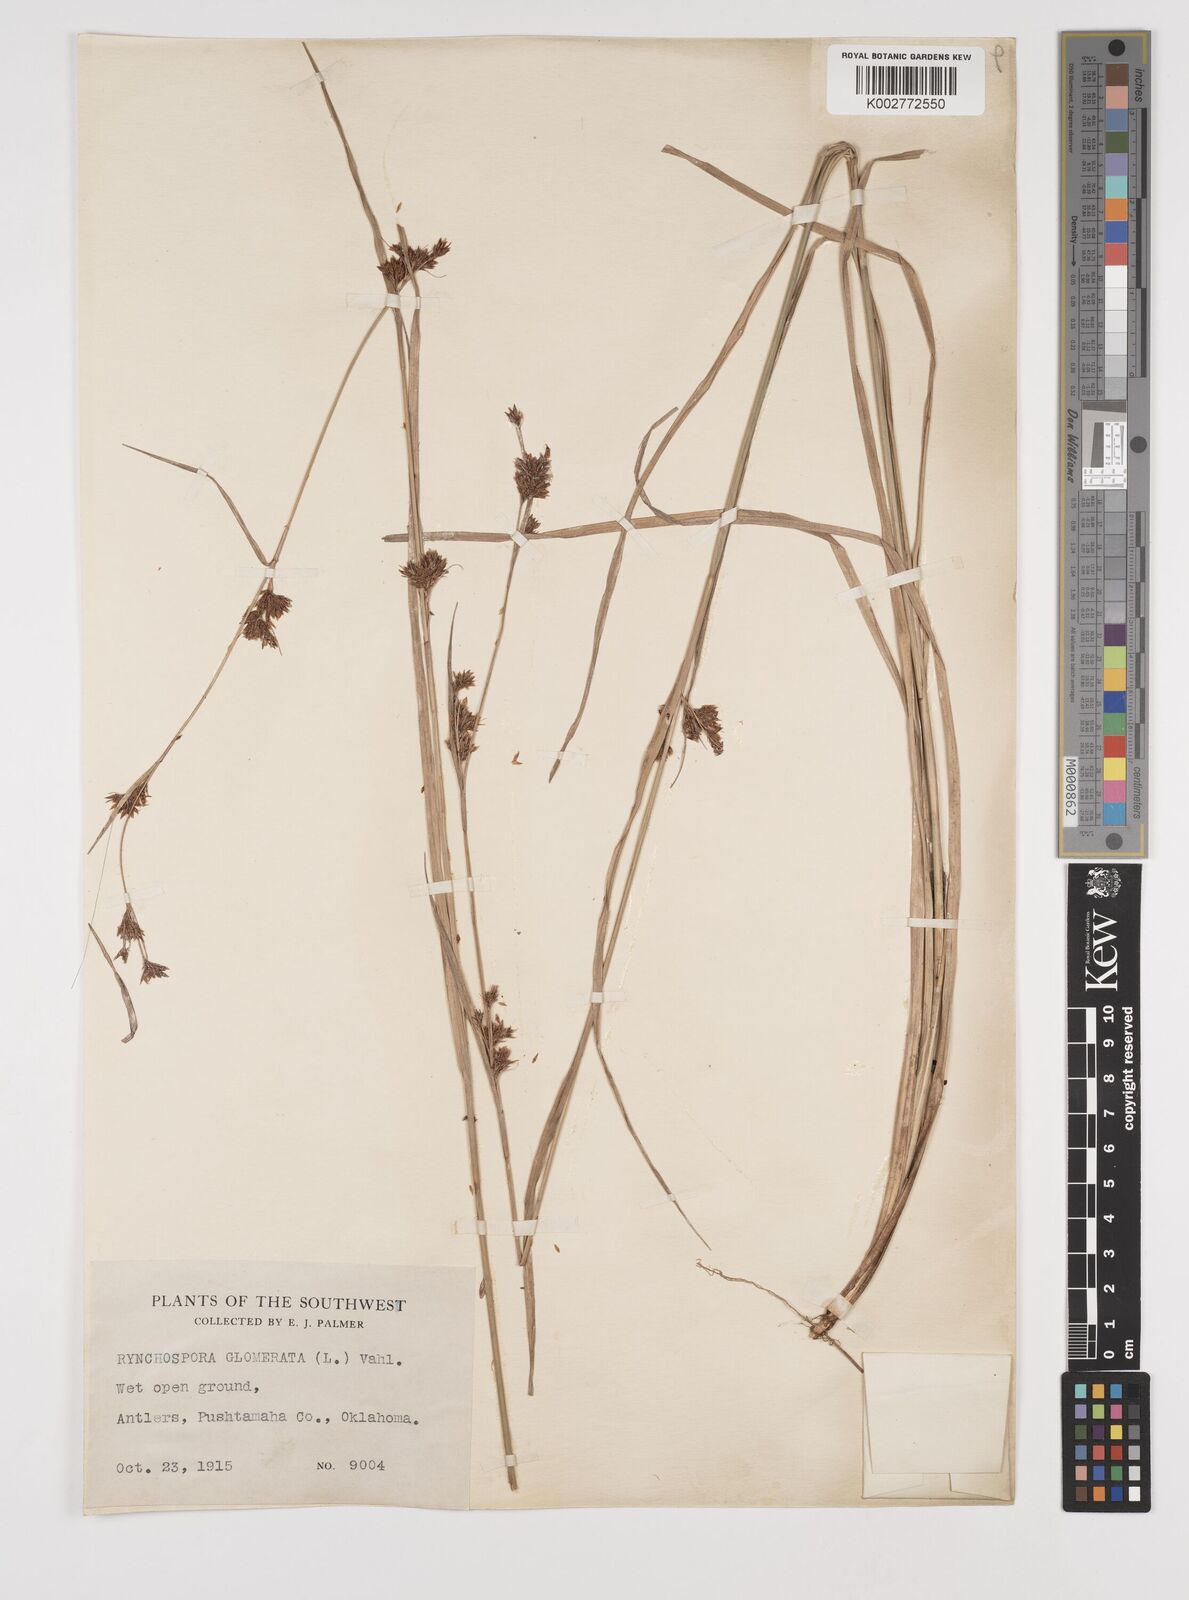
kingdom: Plantae
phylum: Tracheophyta
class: Liliopsida
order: Poales
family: Cyperaceae
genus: Rhynchospora
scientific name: Rhynchospora glomerata
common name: Cluster beak sedge
